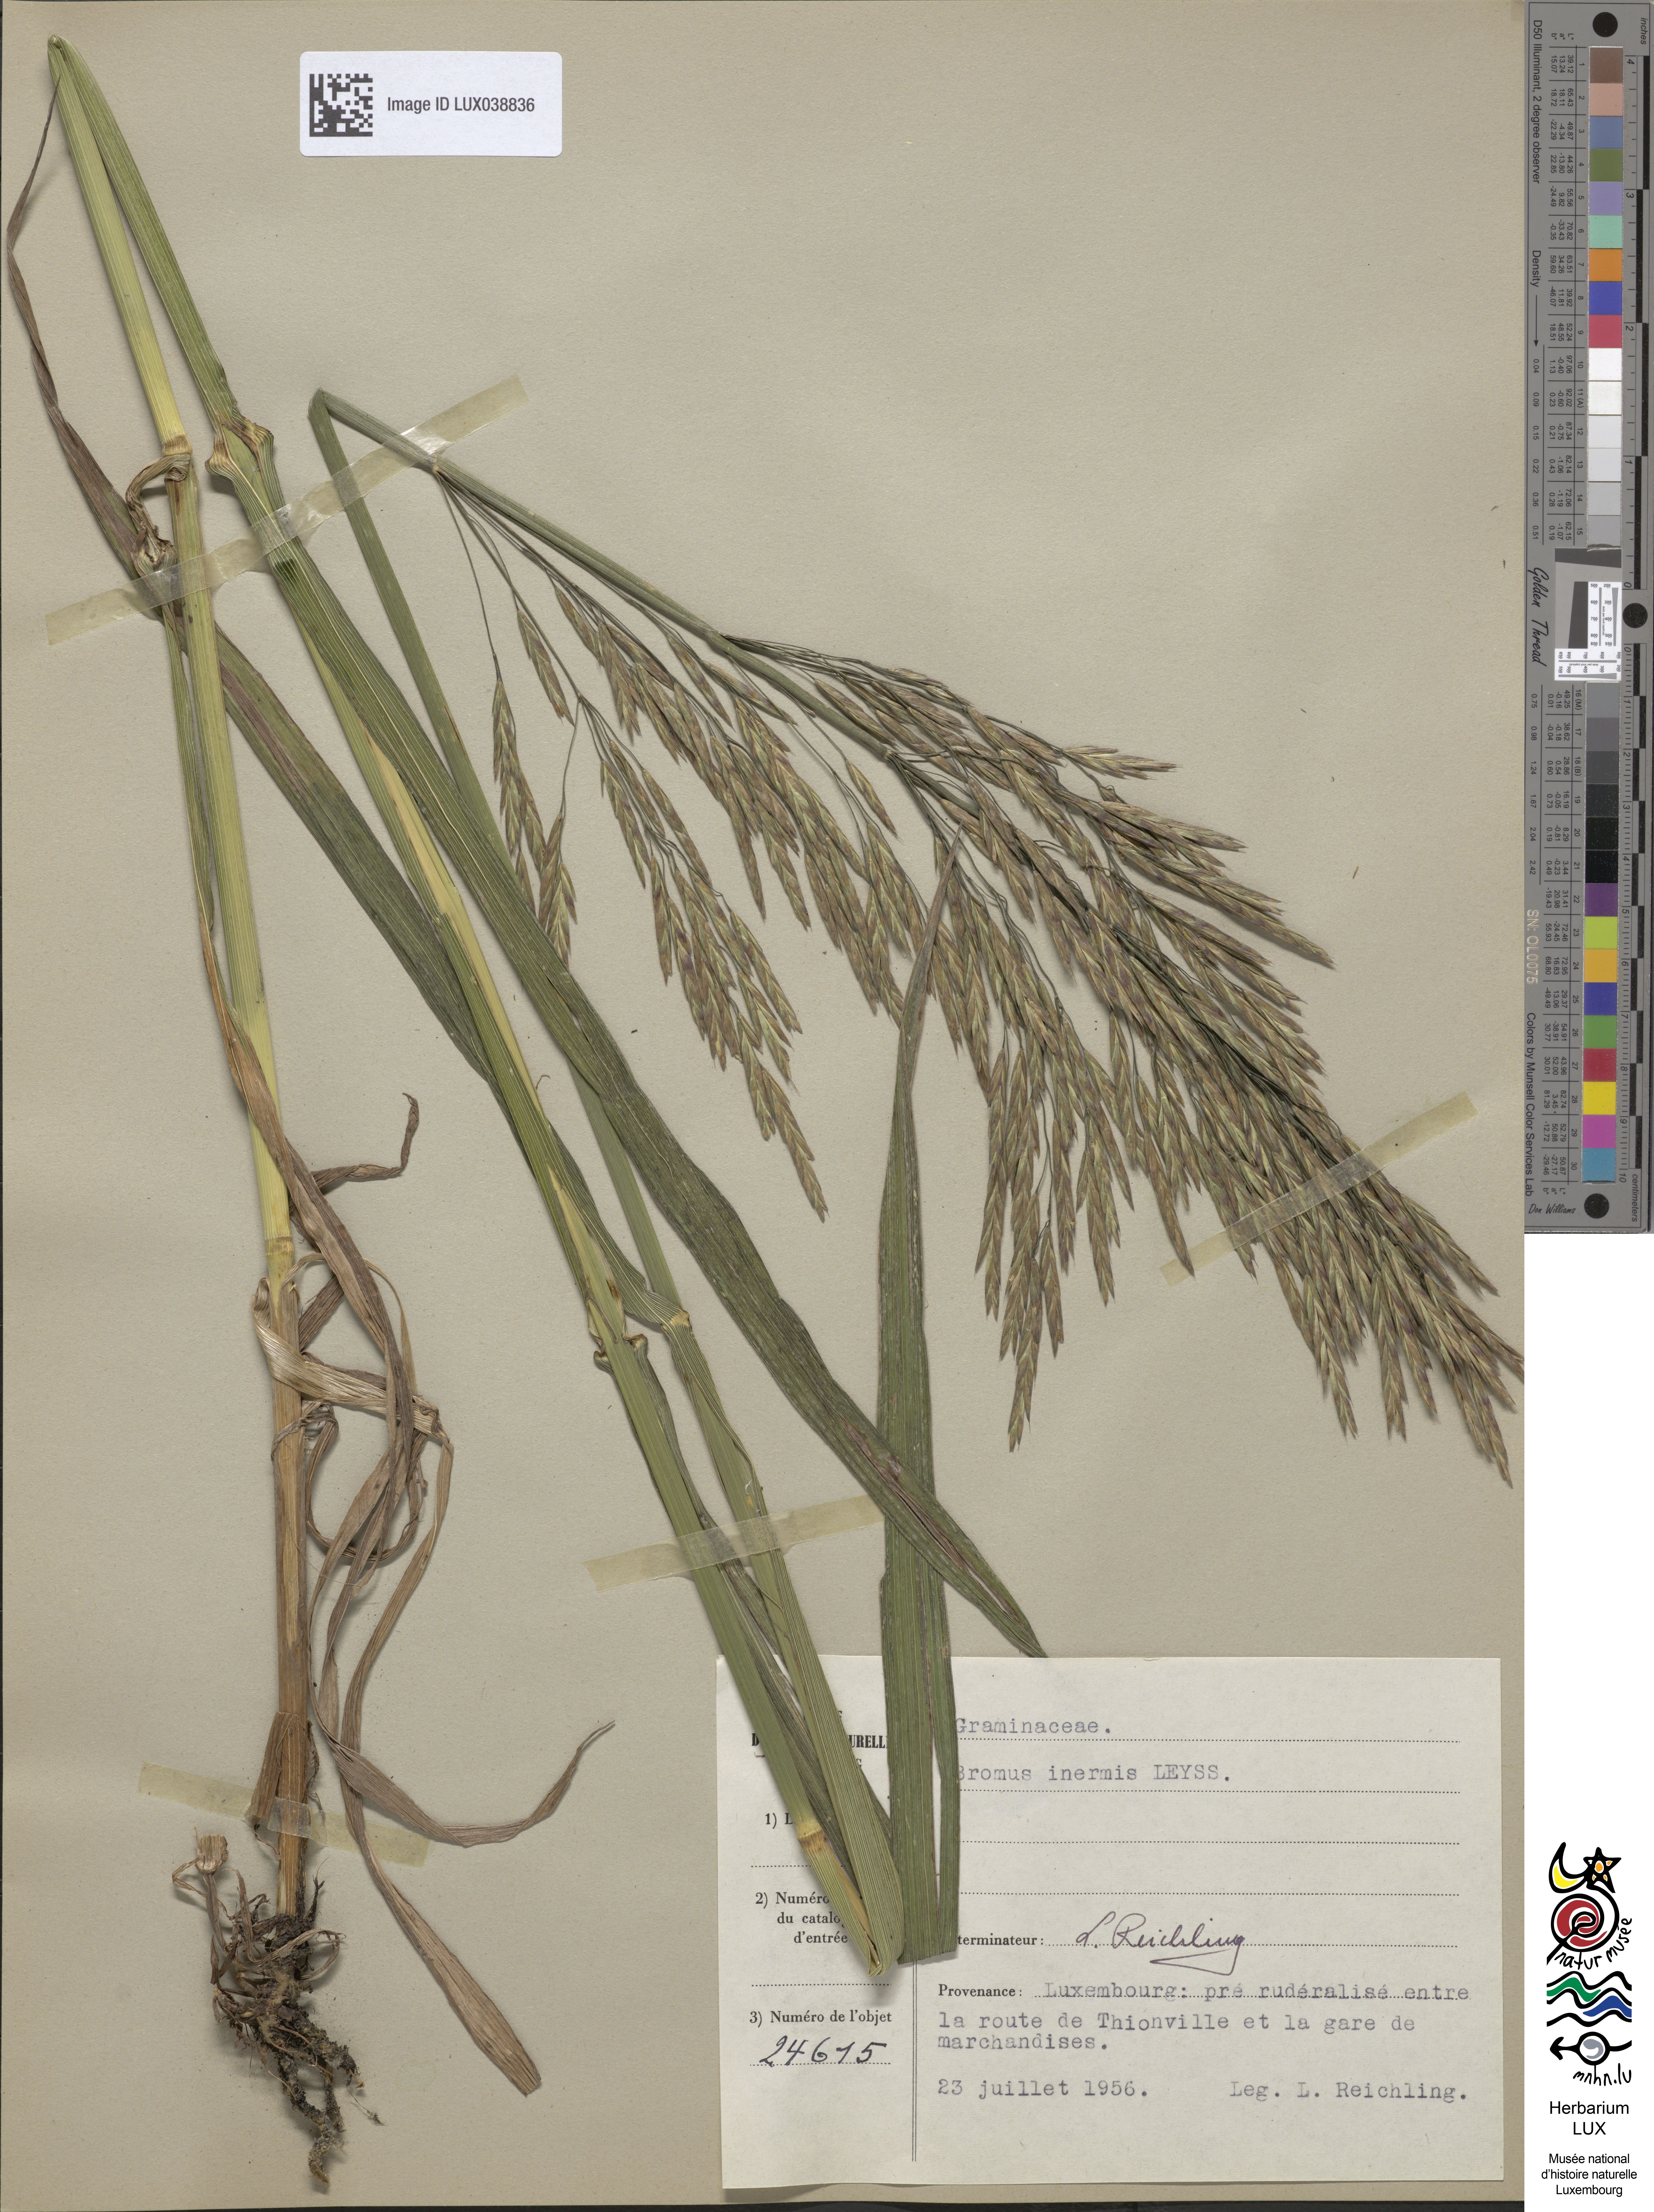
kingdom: Plantae
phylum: Tracheophyta
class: Liliopsida
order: Poales
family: Poaceae
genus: Bromus
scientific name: Bromus inermis
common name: Smooth brome
